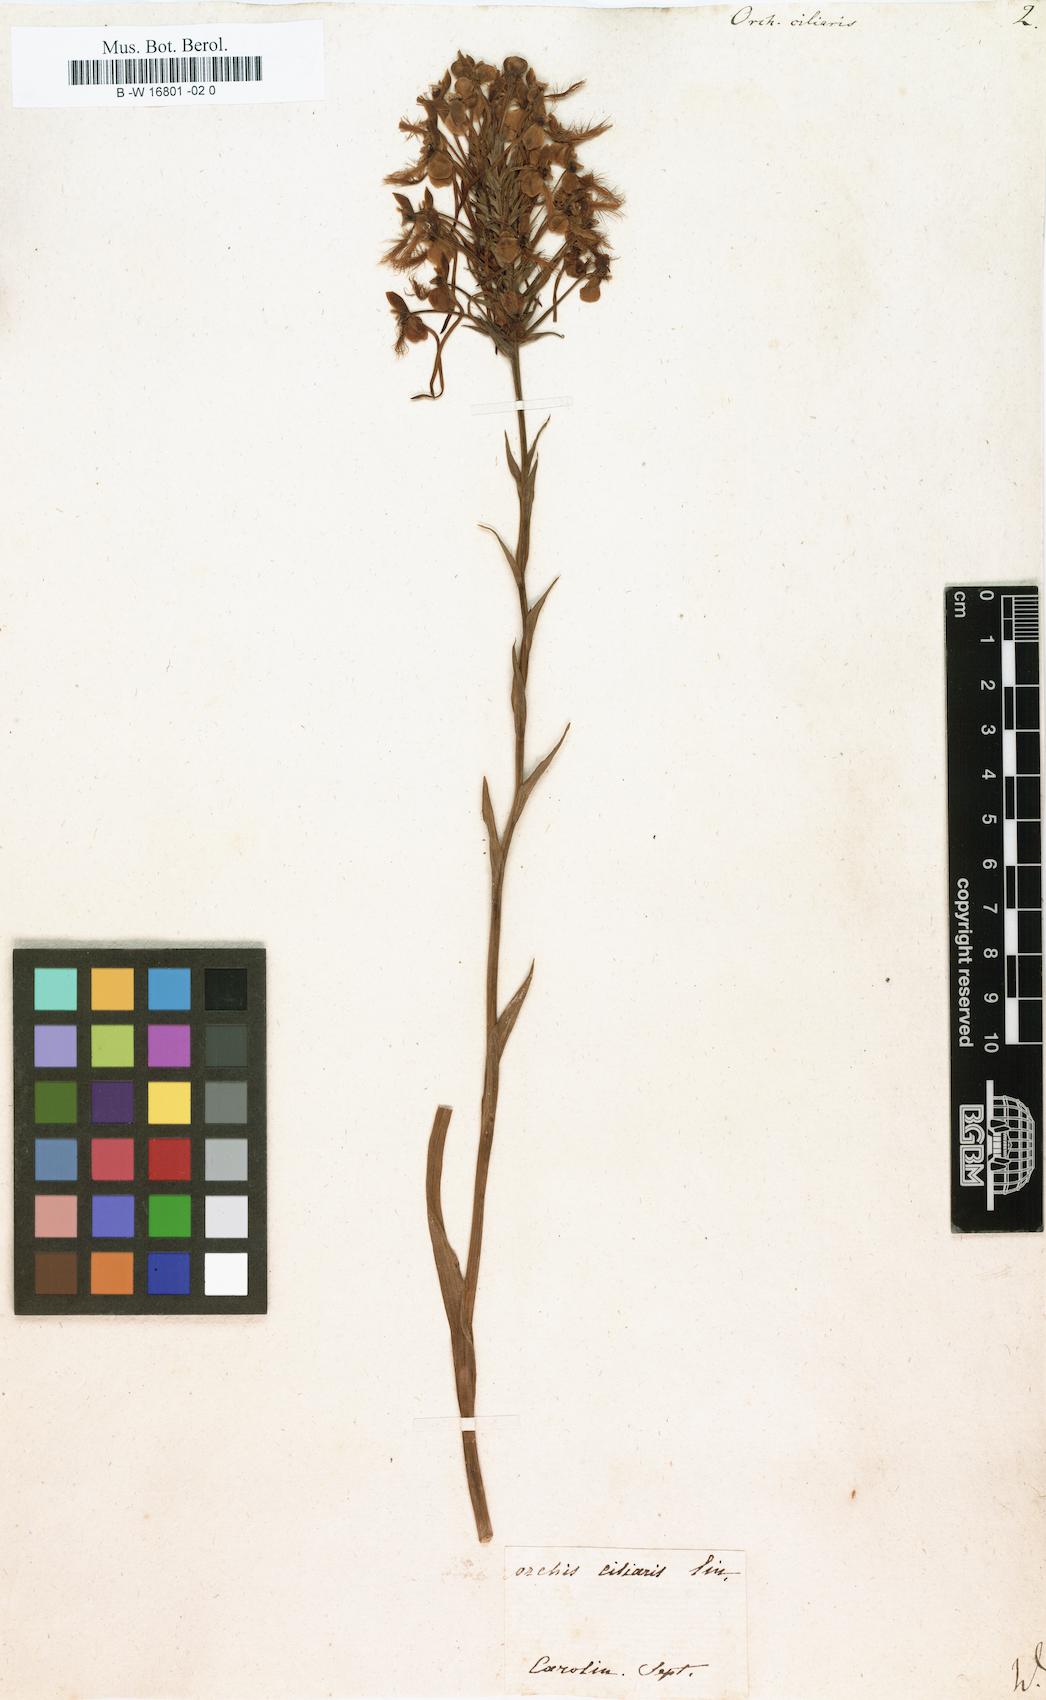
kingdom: Plantae
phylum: Tracheophyta
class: Liliopsida
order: Asparagales
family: Orchidaceae
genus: Platanthera
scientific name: Platanthera ciliaris
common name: Yellow fringed orchid
